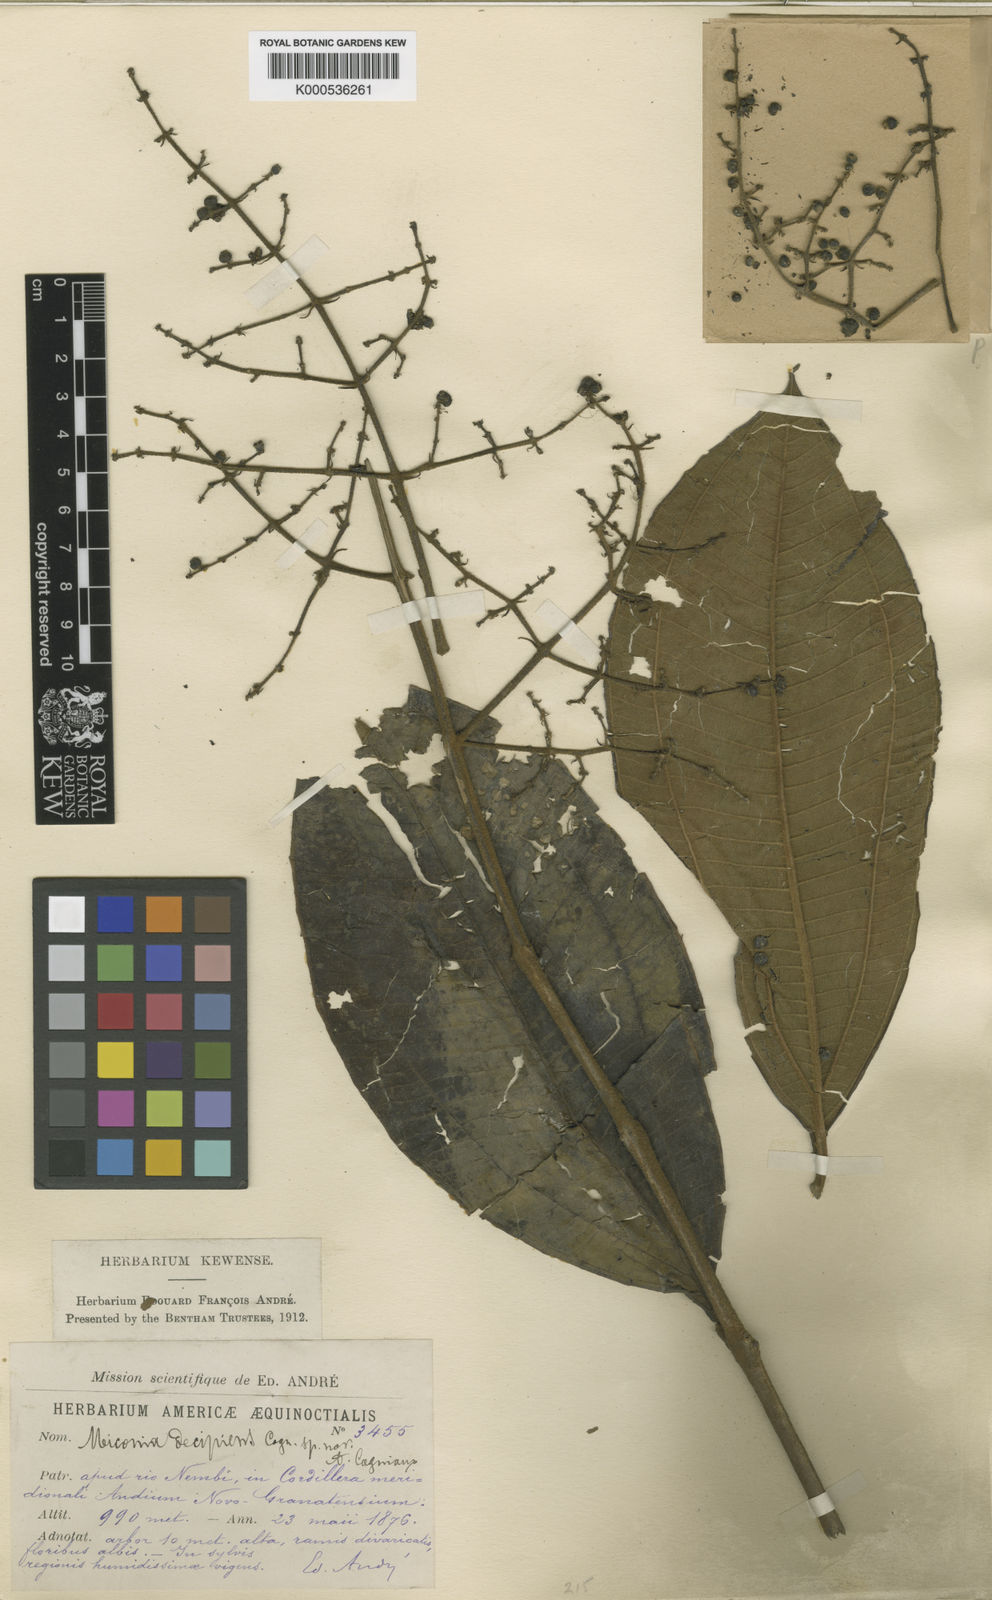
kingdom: Plantae
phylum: Tracheophyta
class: Magnoliopsida
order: Myrtales
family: Melastomataceae
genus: Miconia
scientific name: Miconia decipiens
